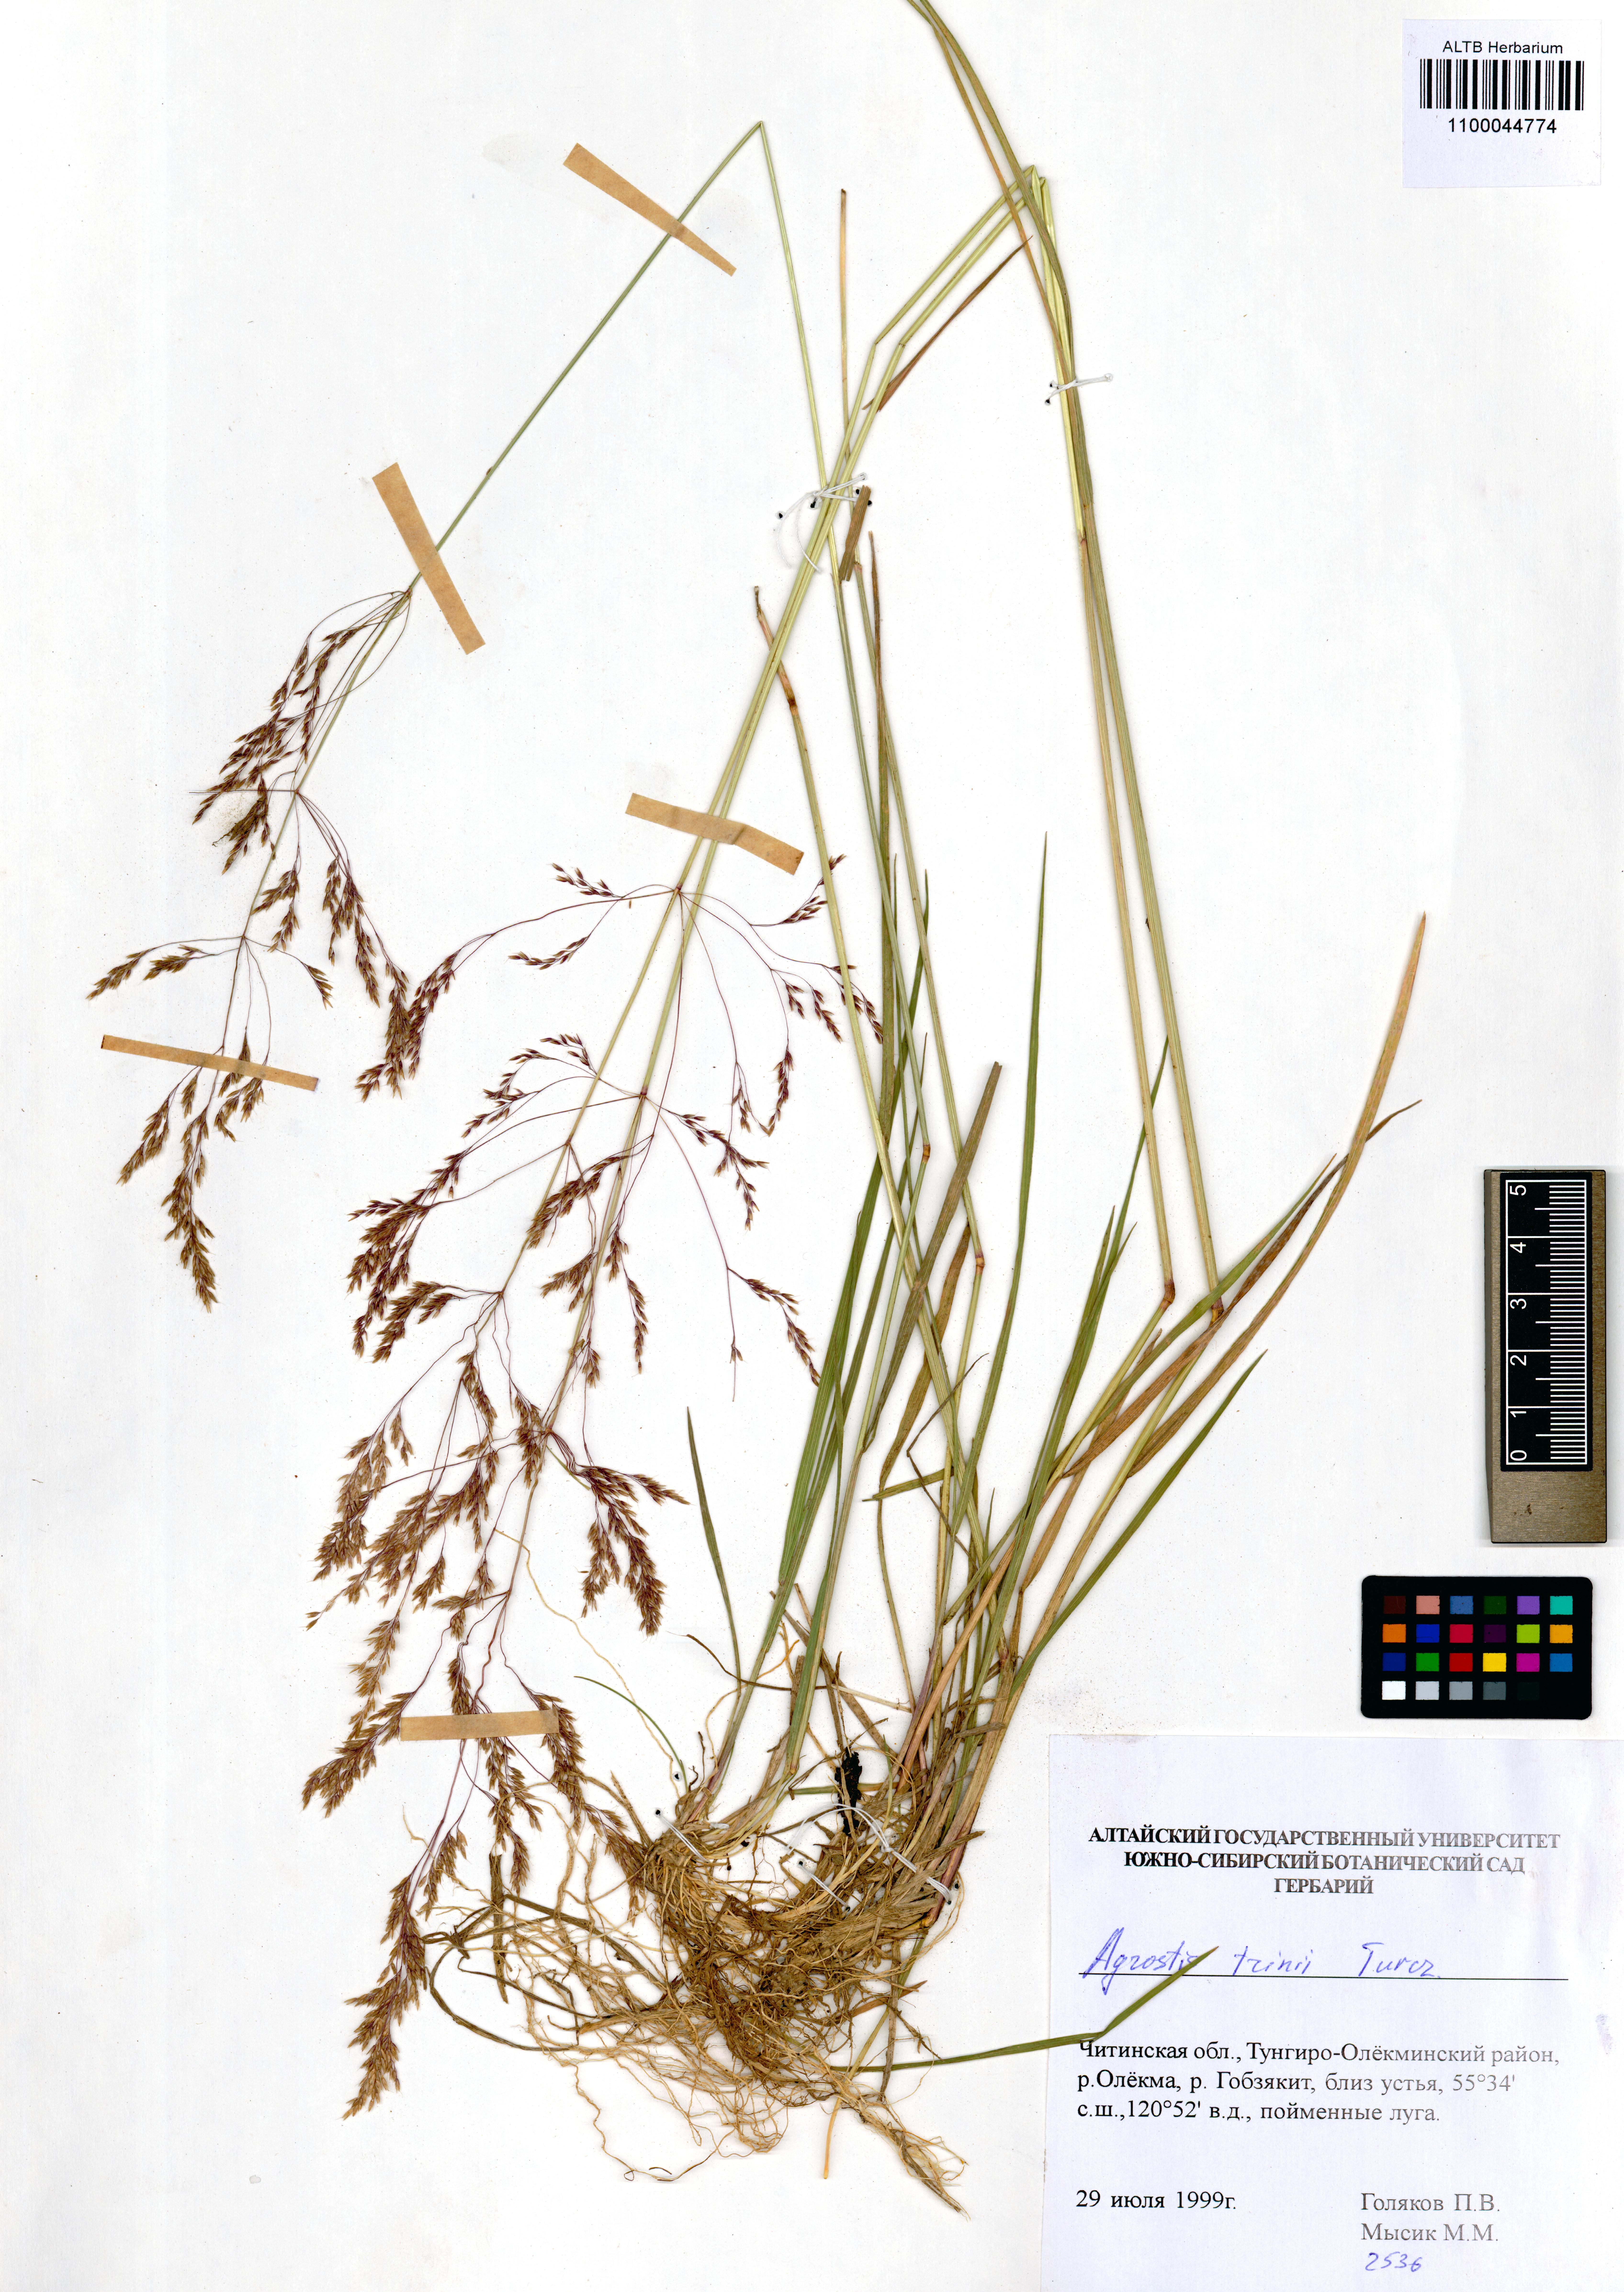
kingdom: Plantae
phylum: Tracheophyta
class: Liliopsida
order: Poales
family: Poaceae
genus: Agrostis
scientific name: Agrostis vinealis
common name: Brown bent
